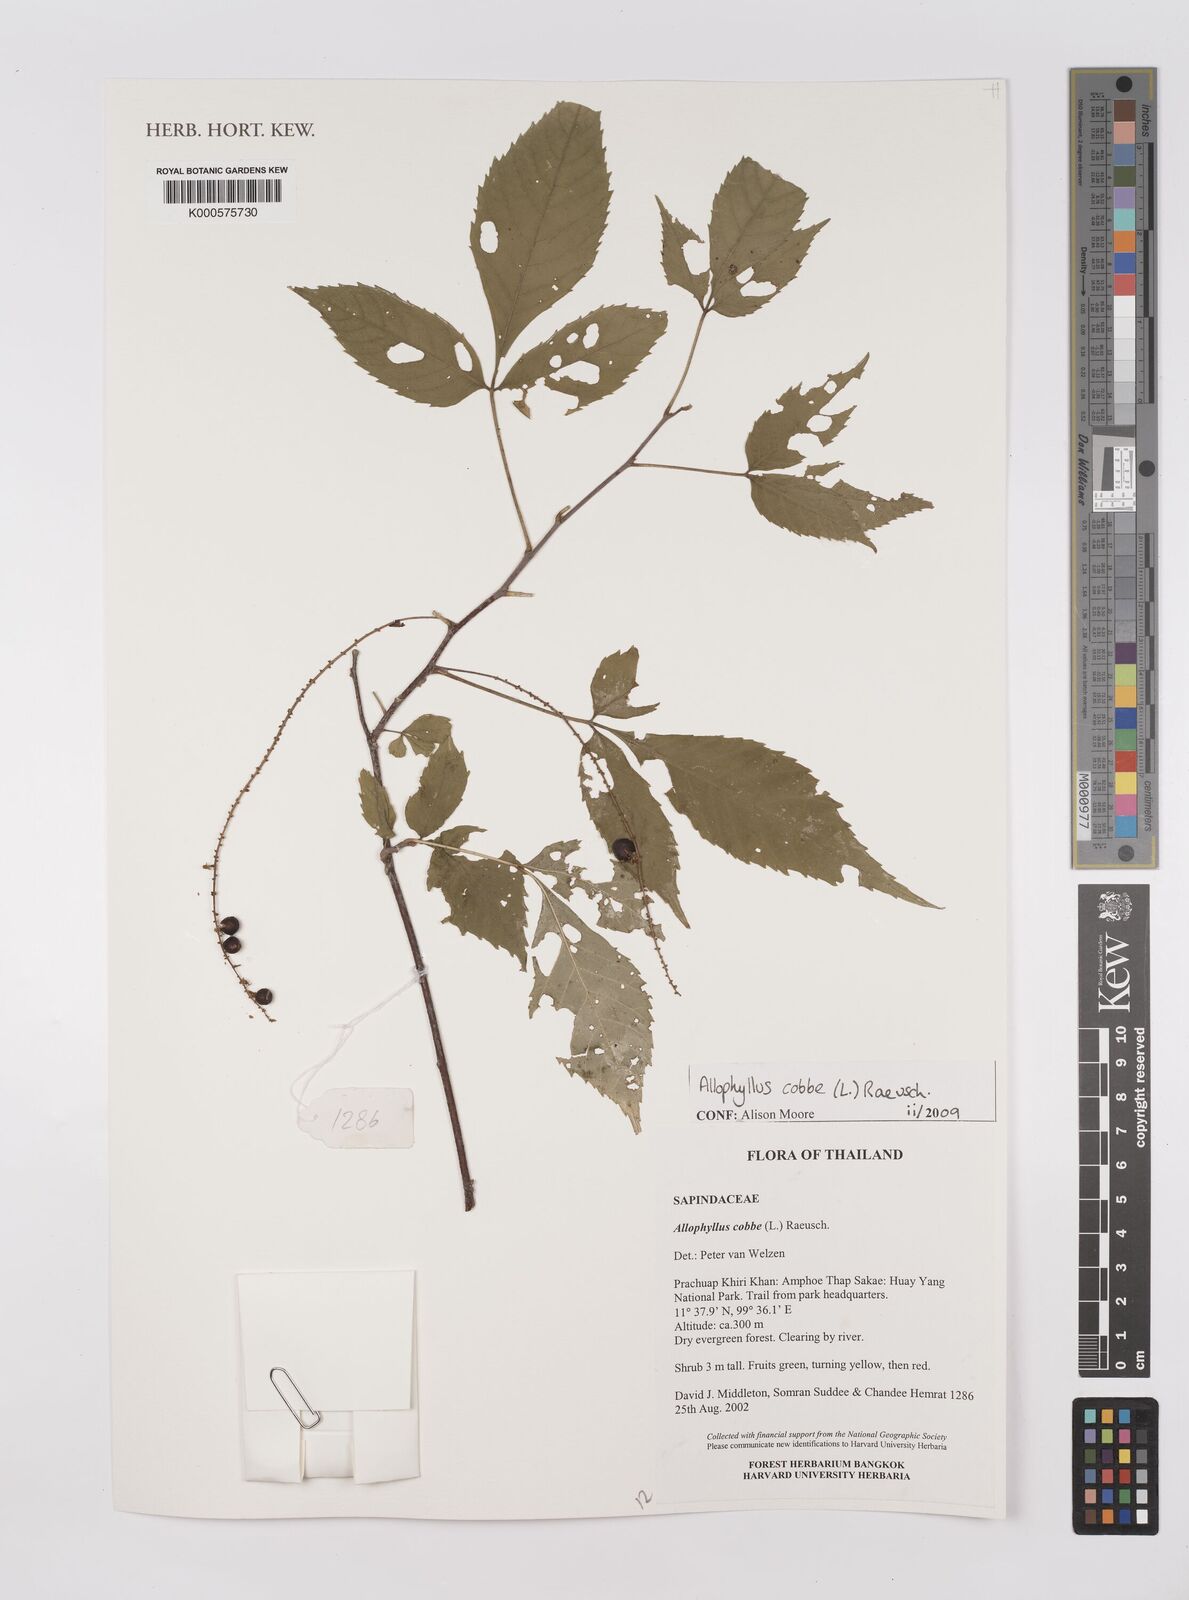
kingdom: Plantae
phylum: Tracheophyta
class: Magnoliopsida
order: Sapindales
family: Sapindaceae
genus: Allophylus
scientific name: Allophylus
